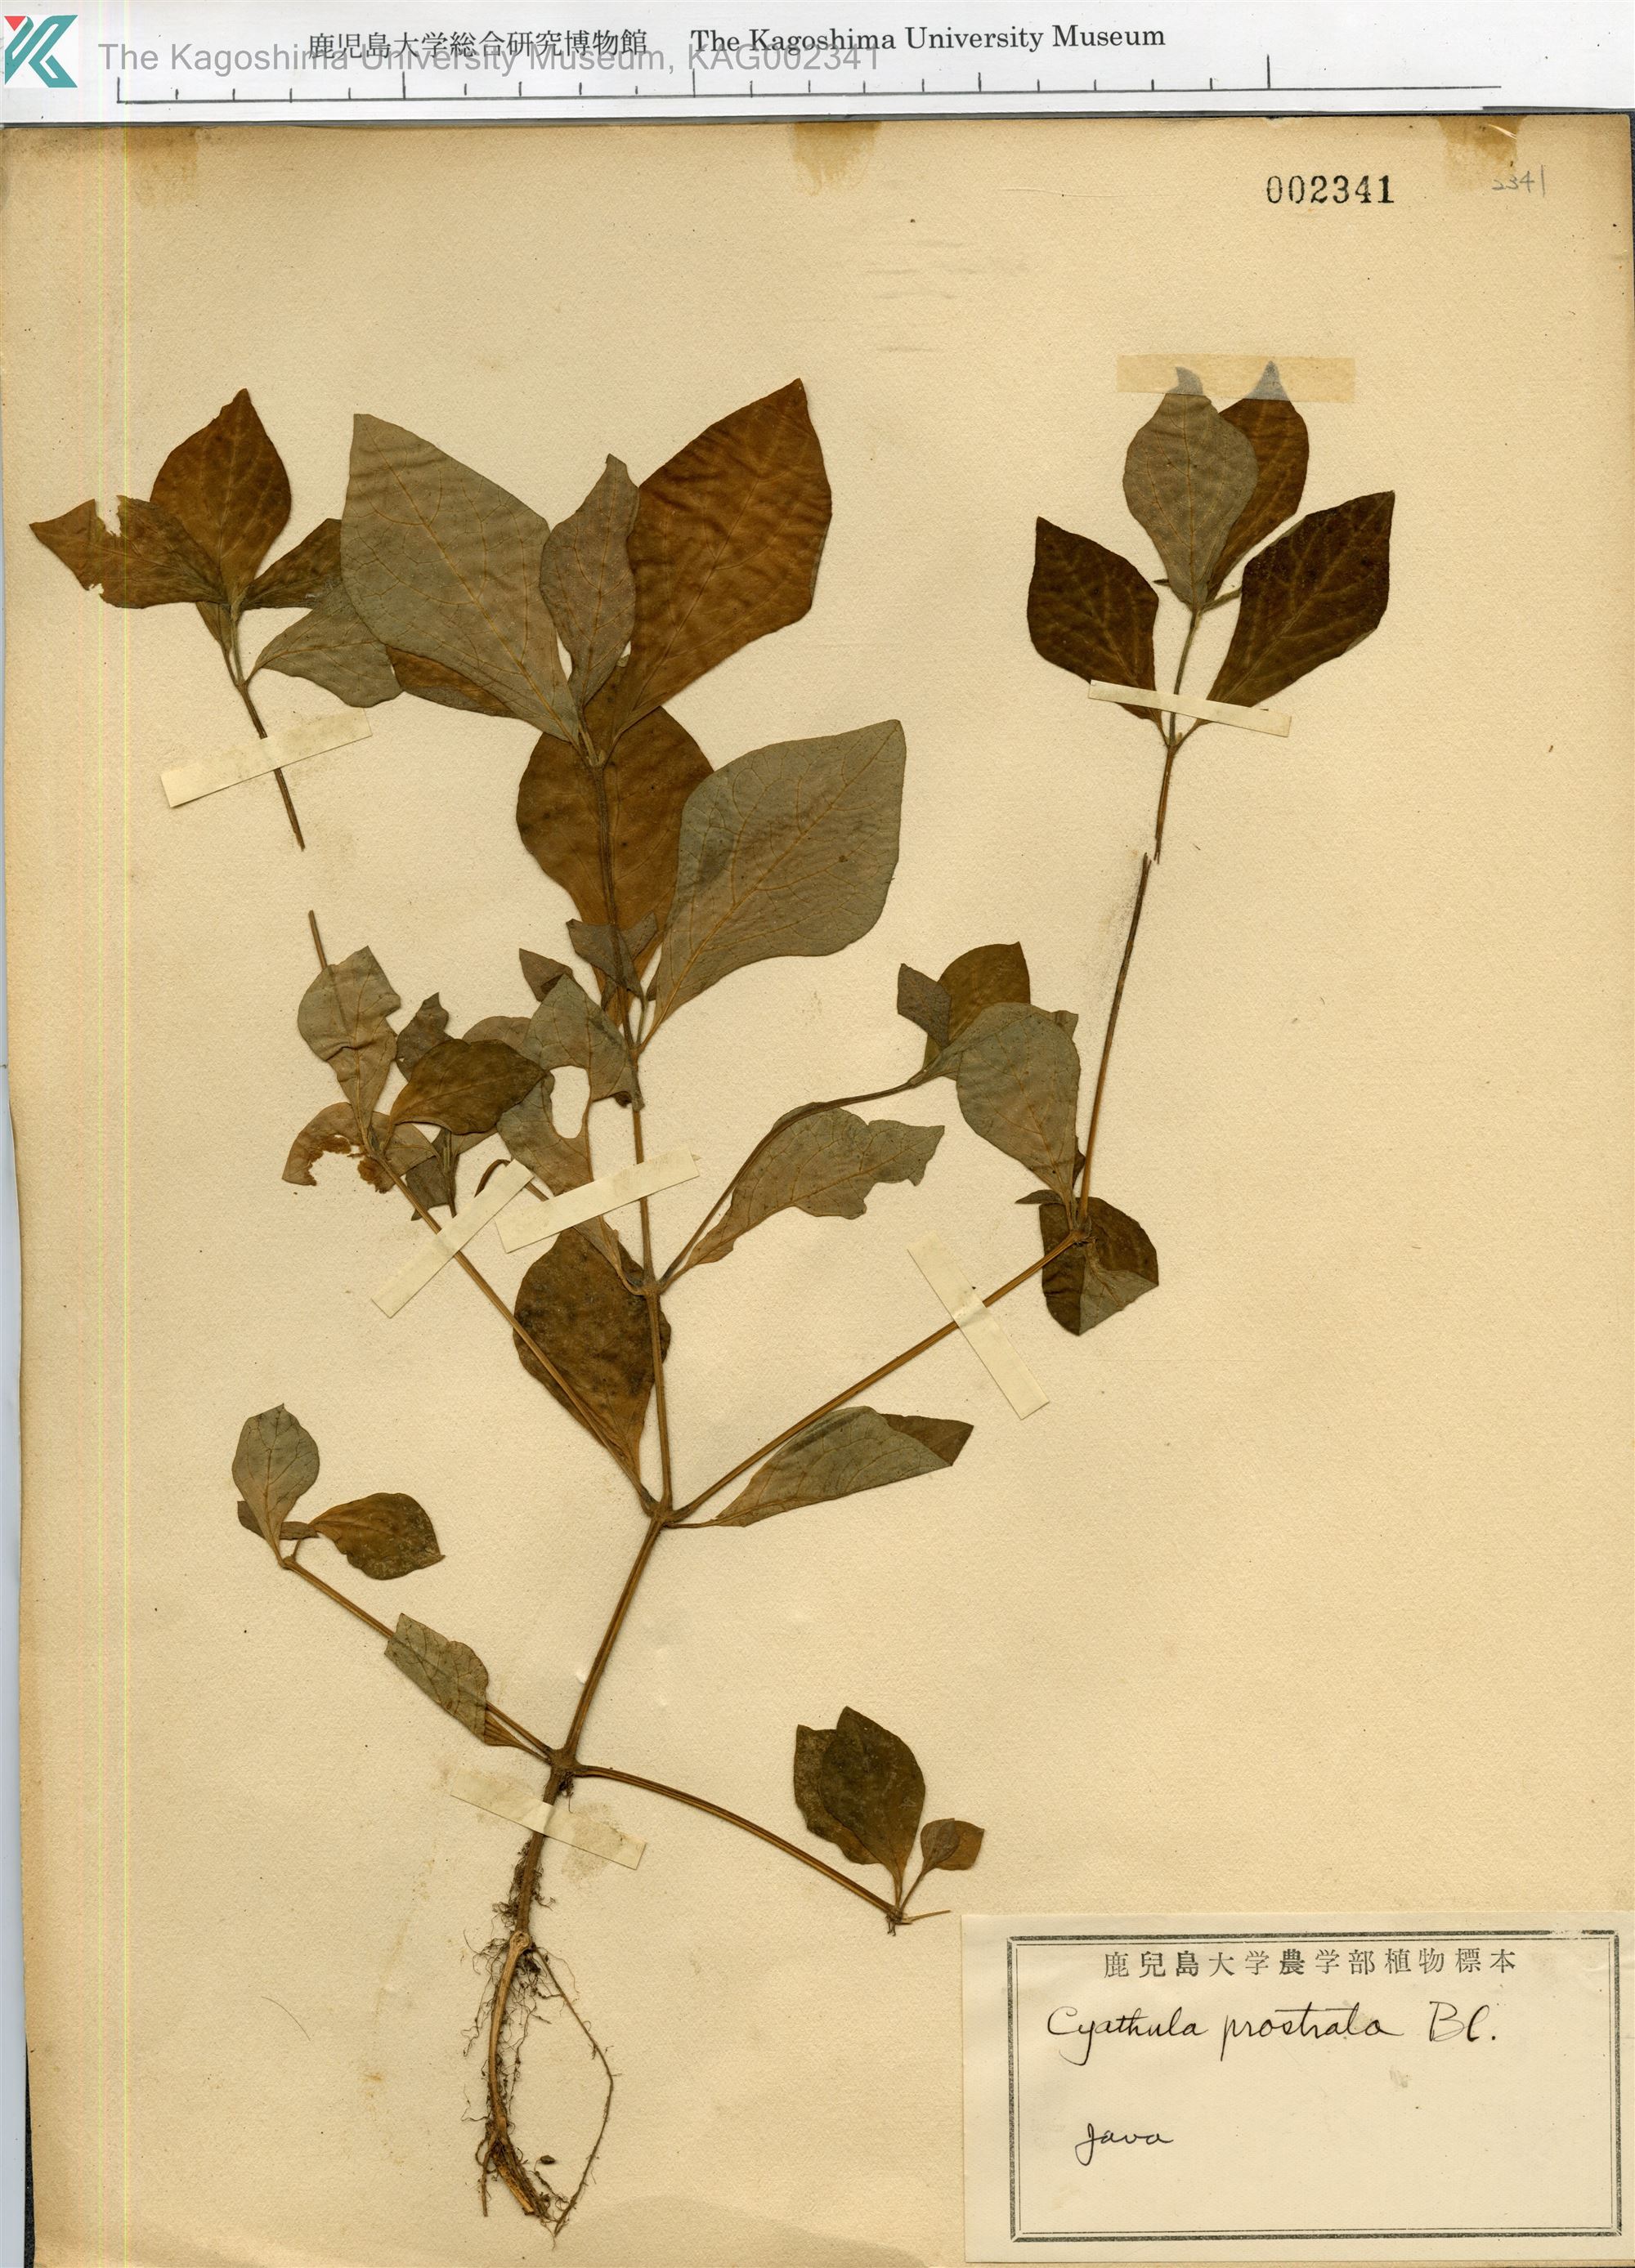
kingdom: Plantae
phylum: Tracheophyta
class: Magnoliopsida
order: Caryophyllales
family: Amaranthaceae
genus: Cyathula
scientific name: Cyathula prostrata
